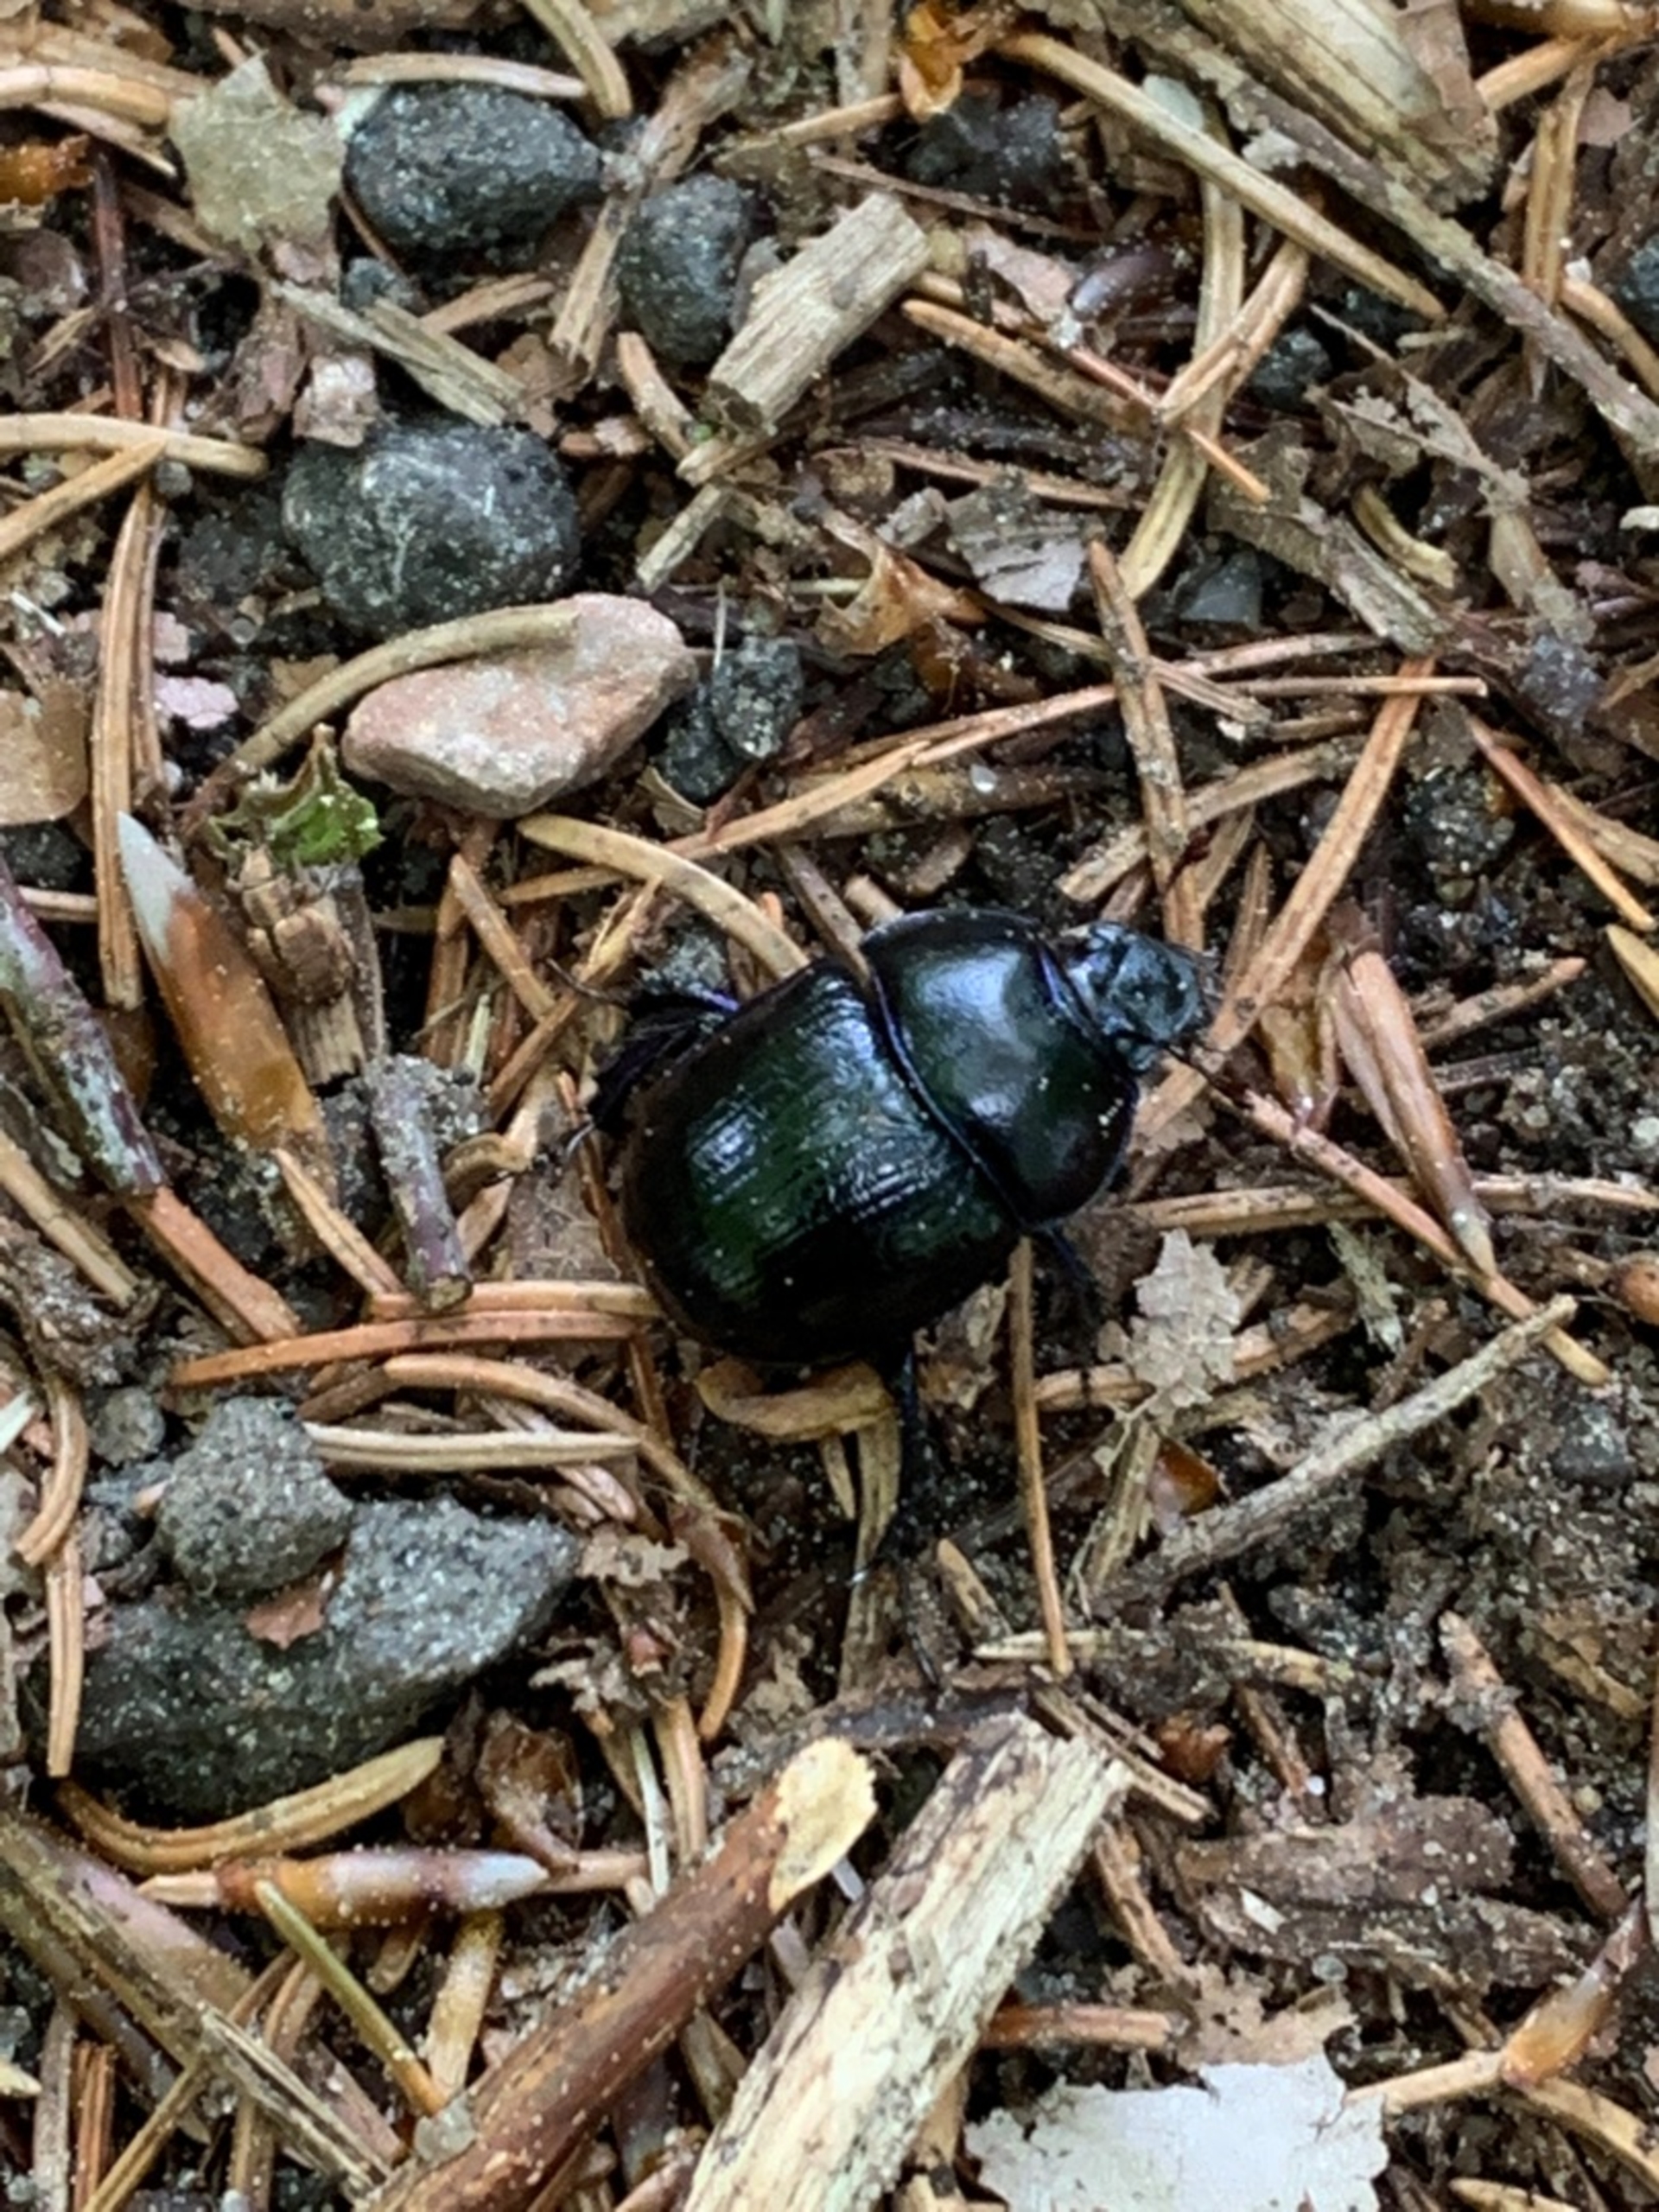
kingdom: Animalia
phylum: Arthropoda
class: Insecta
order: Coleoptera
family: Geotrupidae
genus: Anoplotrupes
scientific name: Anoplotrupes stercorosus
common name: Skovskarnbasse
